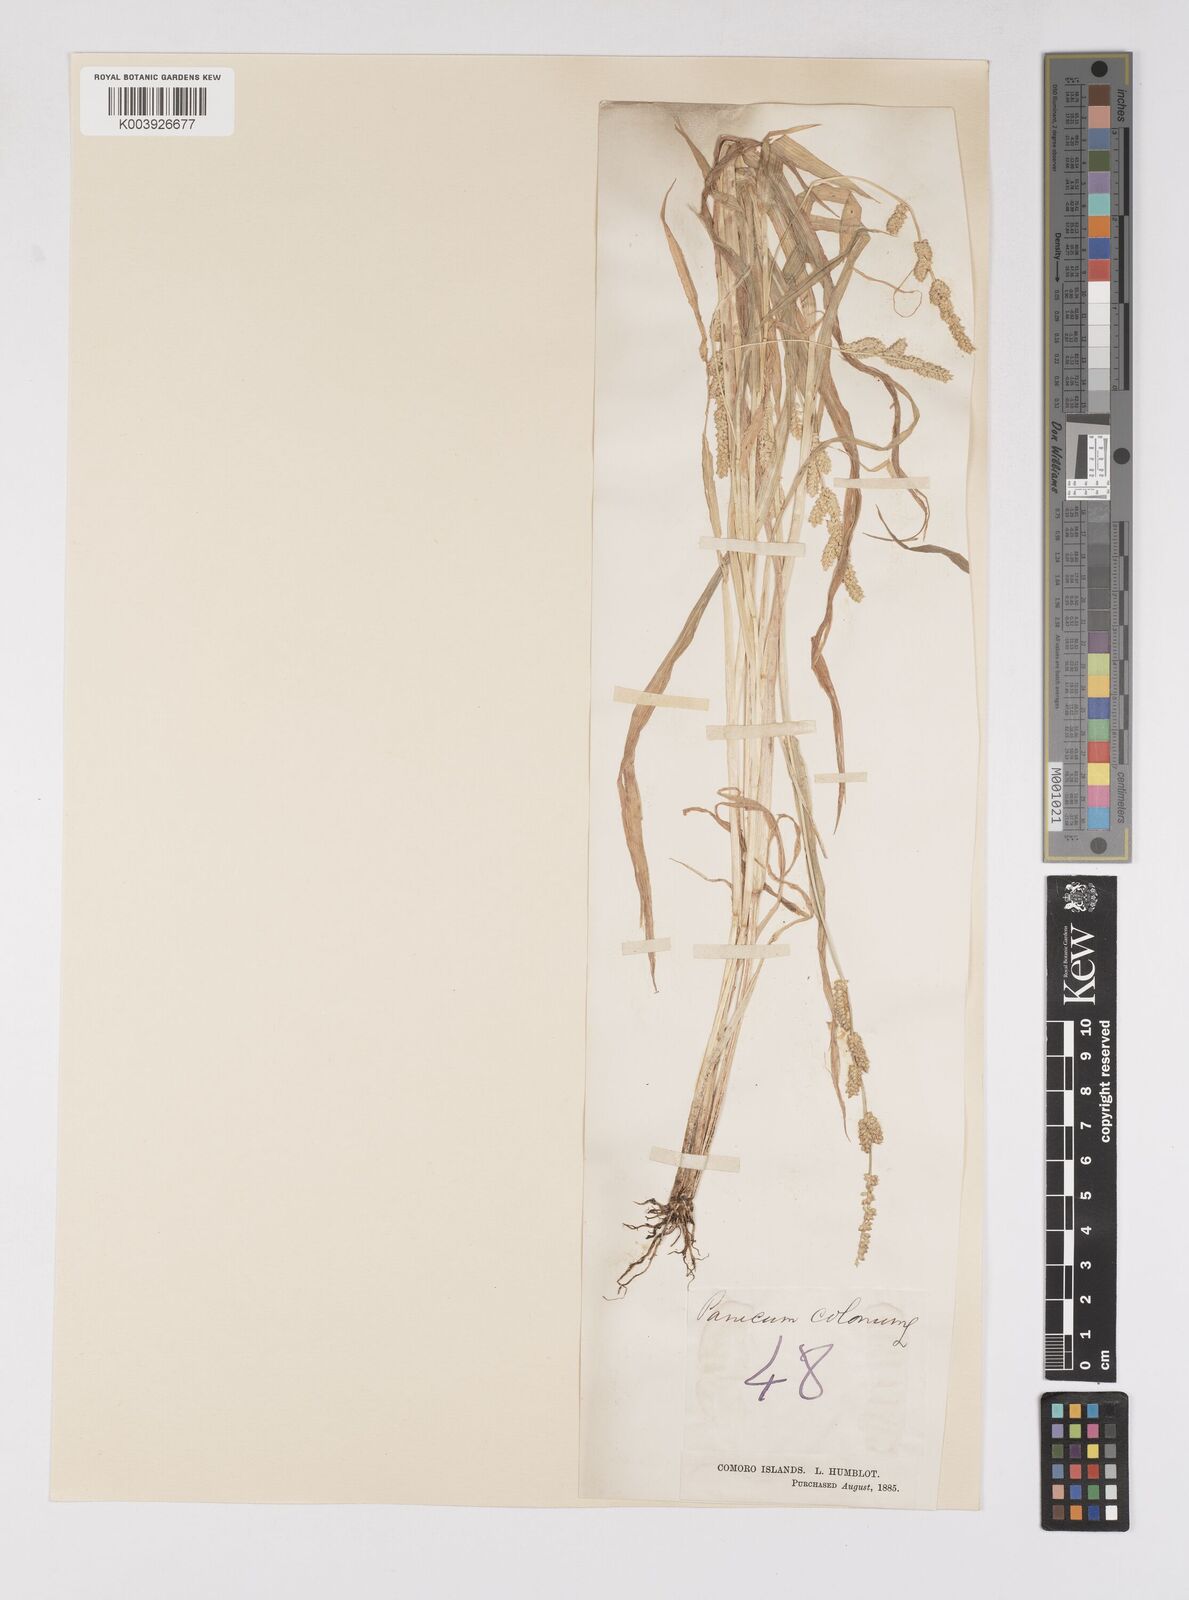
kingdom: Plantae
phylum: Tracheophyta
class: Liliopsida
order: Poales
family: Poaceae
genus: Echinochloa
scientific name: Echinochloa colonum
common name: Jungle rice
